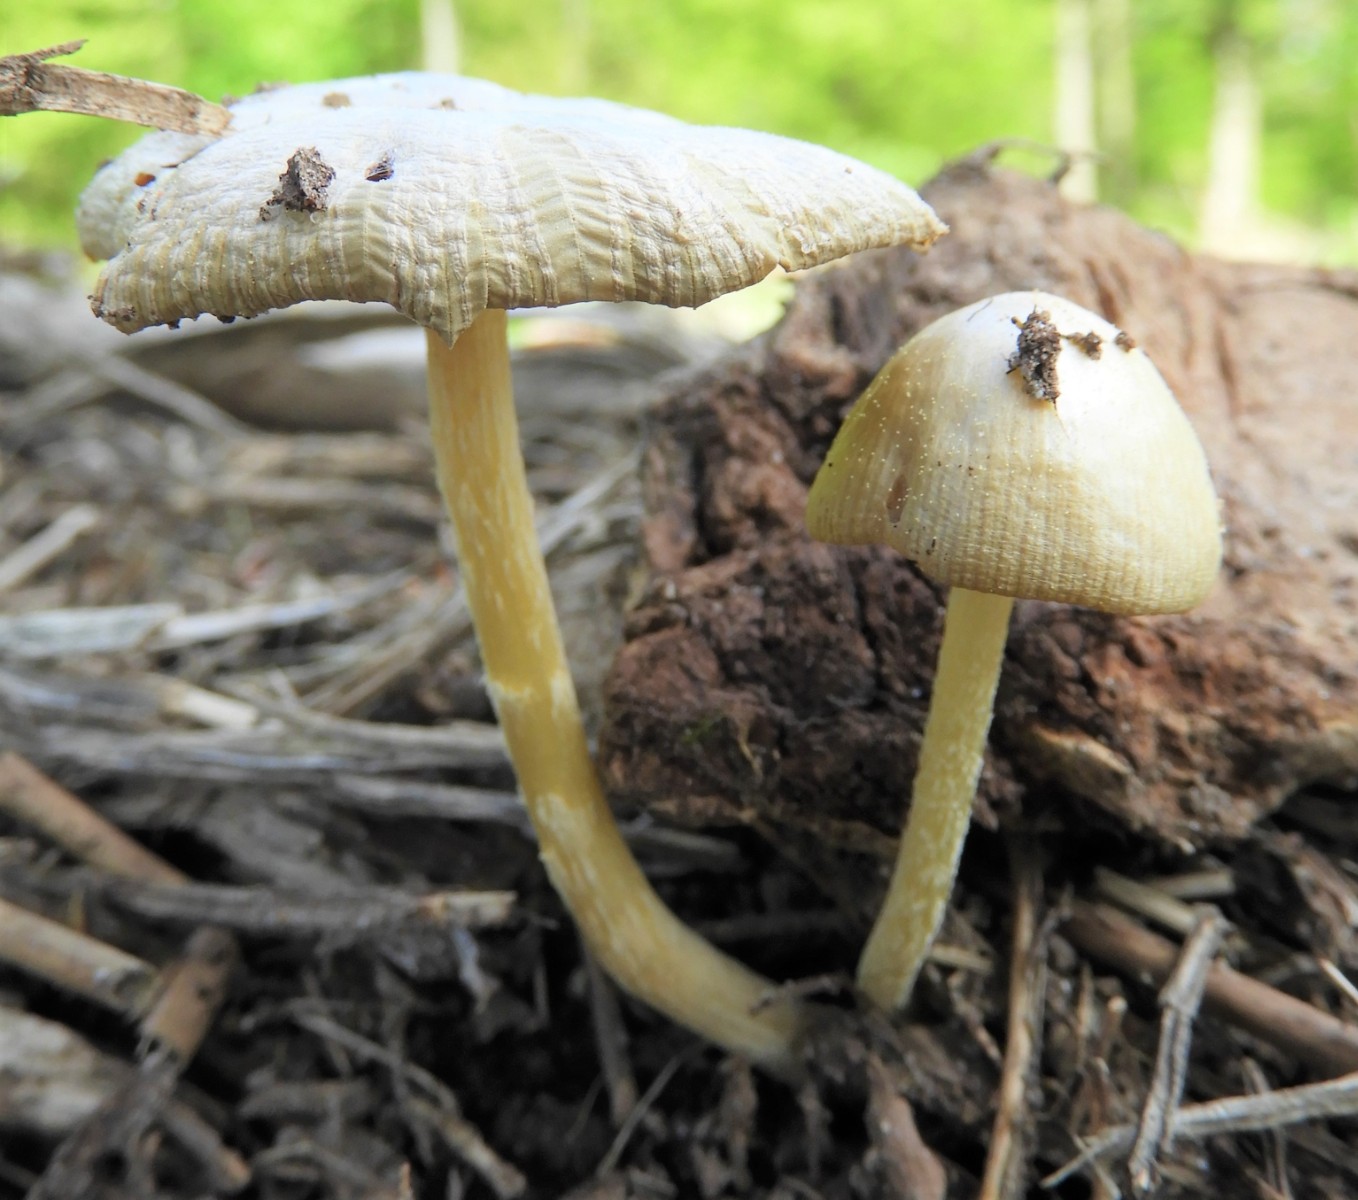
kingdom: Fungi
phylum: Basidiomycota
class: Agaricomycetes
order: Agaricales
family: Bolbitiaceae
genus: Bolbitius
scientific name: Bolbitius titubans
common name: almindelig gulhat
